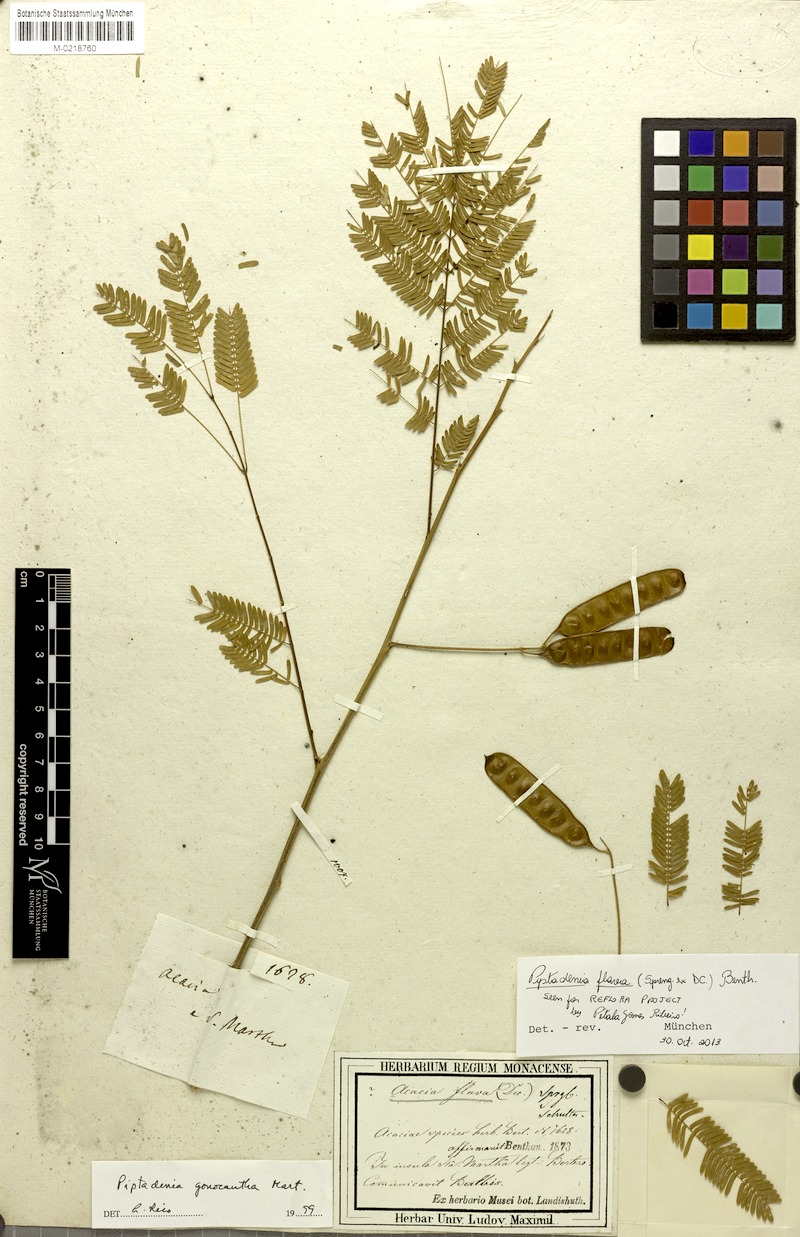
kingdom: Plantae
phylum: Tracheophyta
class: Magnoliopsida
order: Fabales
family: Fabaceae
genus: Piptadenia
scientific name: Piptadenia retusa
